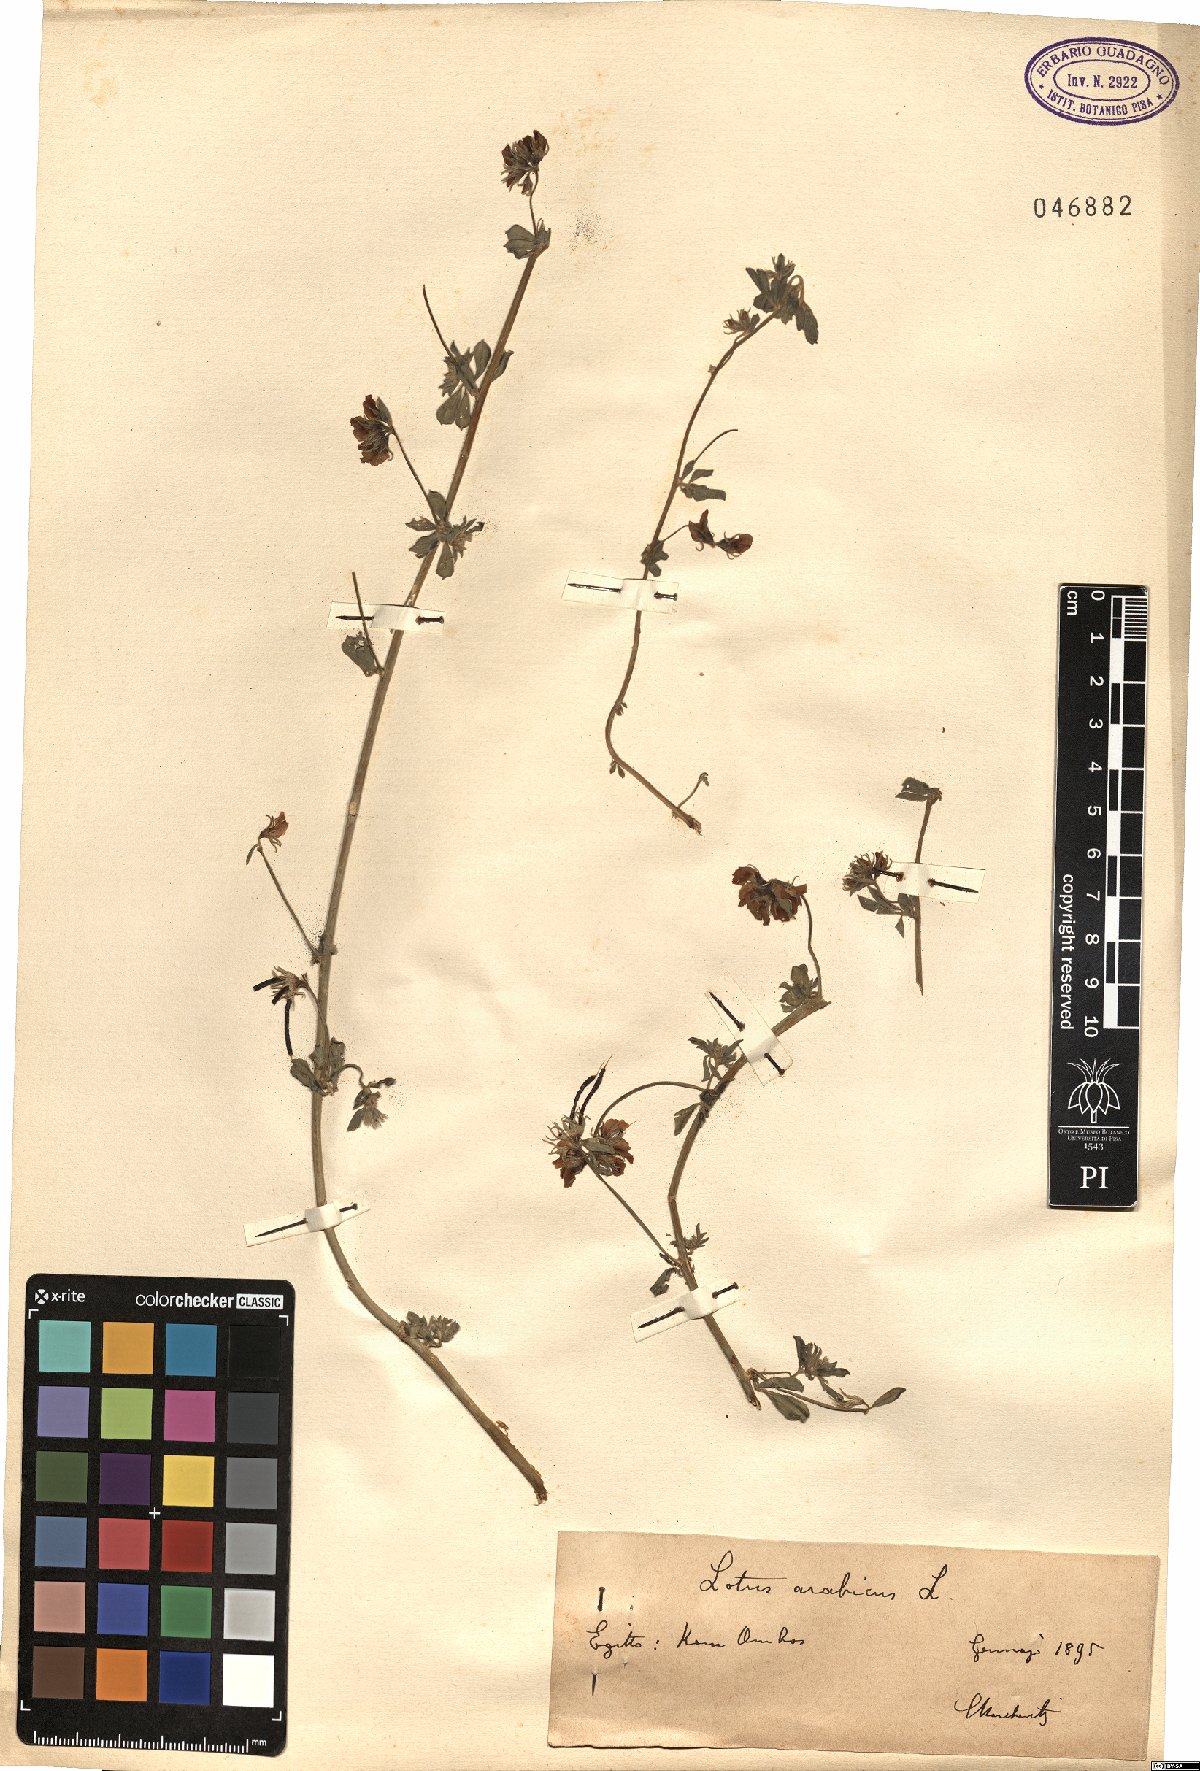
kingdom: Plantae
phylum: Tracheophyta
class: Magnoliopsida
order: Fabales
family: Fabaceae
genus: Lotus
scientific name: Lotus arabicus
